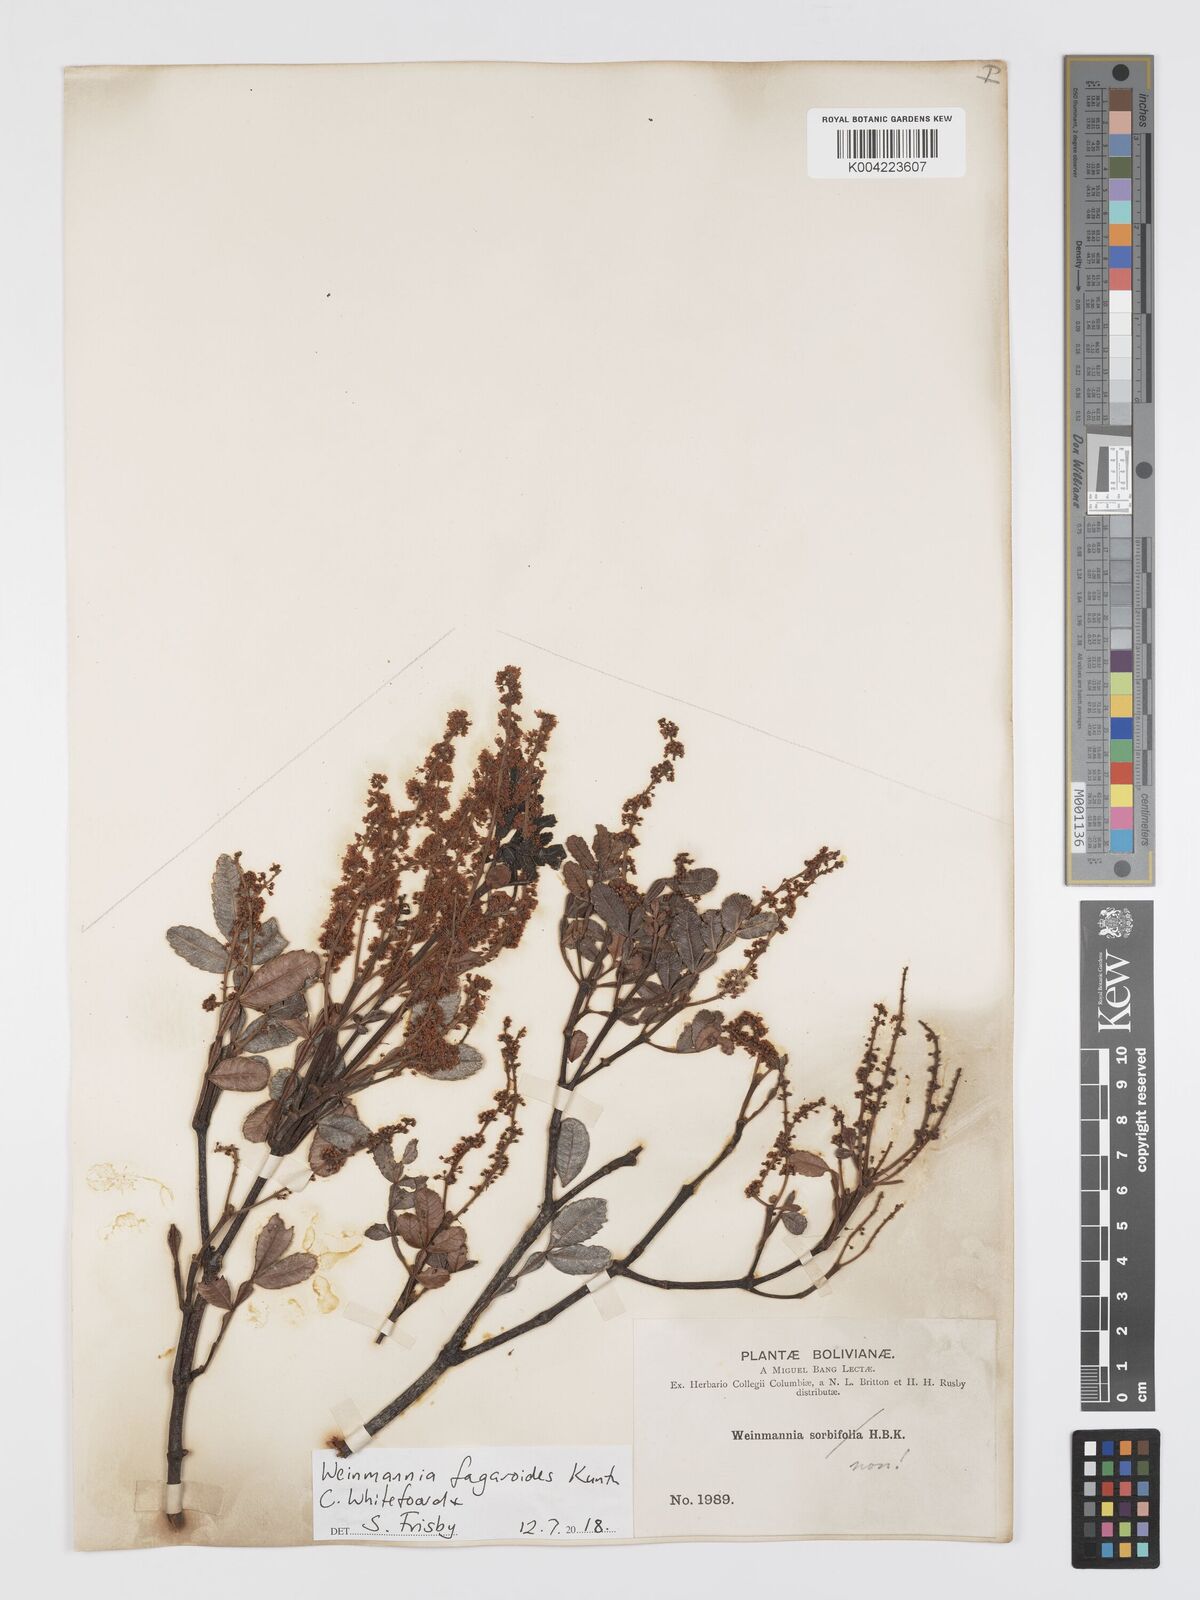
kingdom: Plantae
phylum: Tracheophyta
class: Magnoliopsida
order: Oxalidales
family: Cunoniaceae
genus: Weinmannia
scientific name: Weinmannia fagaroides
